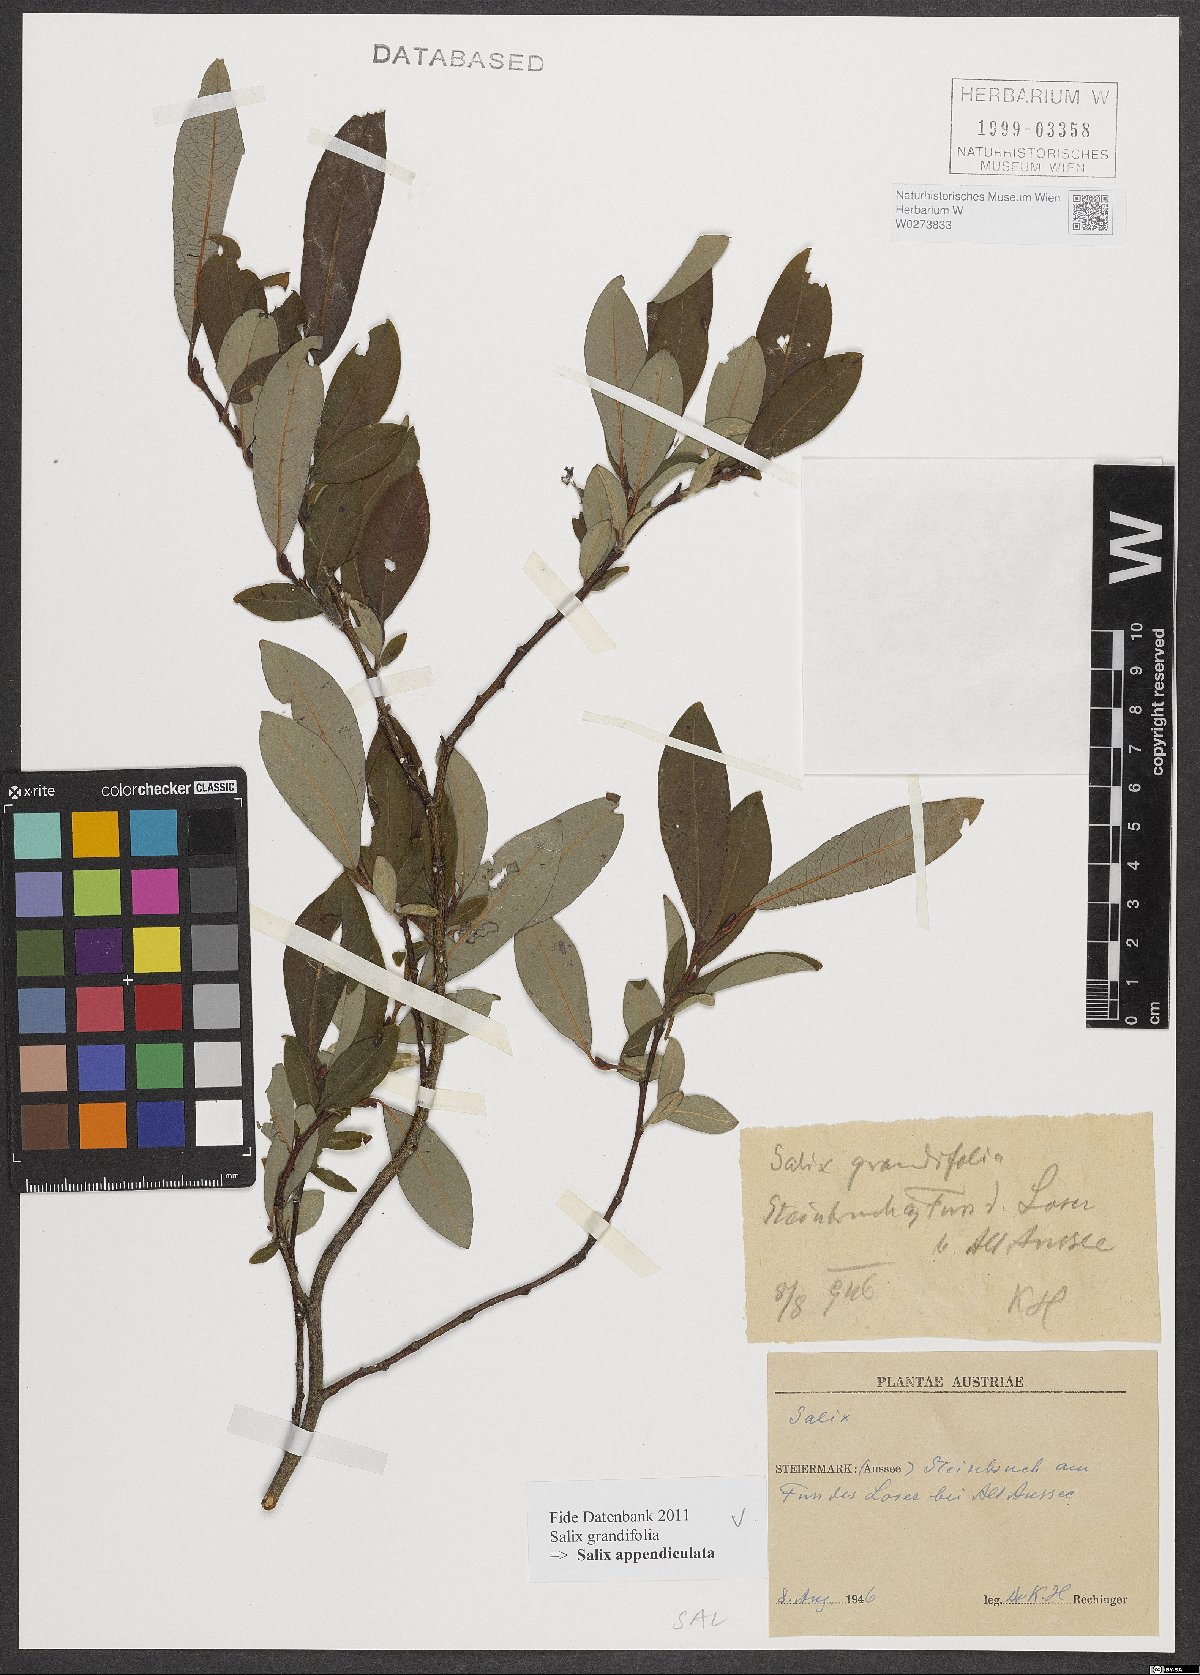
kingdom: Plantae
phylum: Tracheophyta
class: Magnoliopsida
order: Malpighiales
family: Salicaceae
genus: Salix
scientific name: Salix appendiculata
